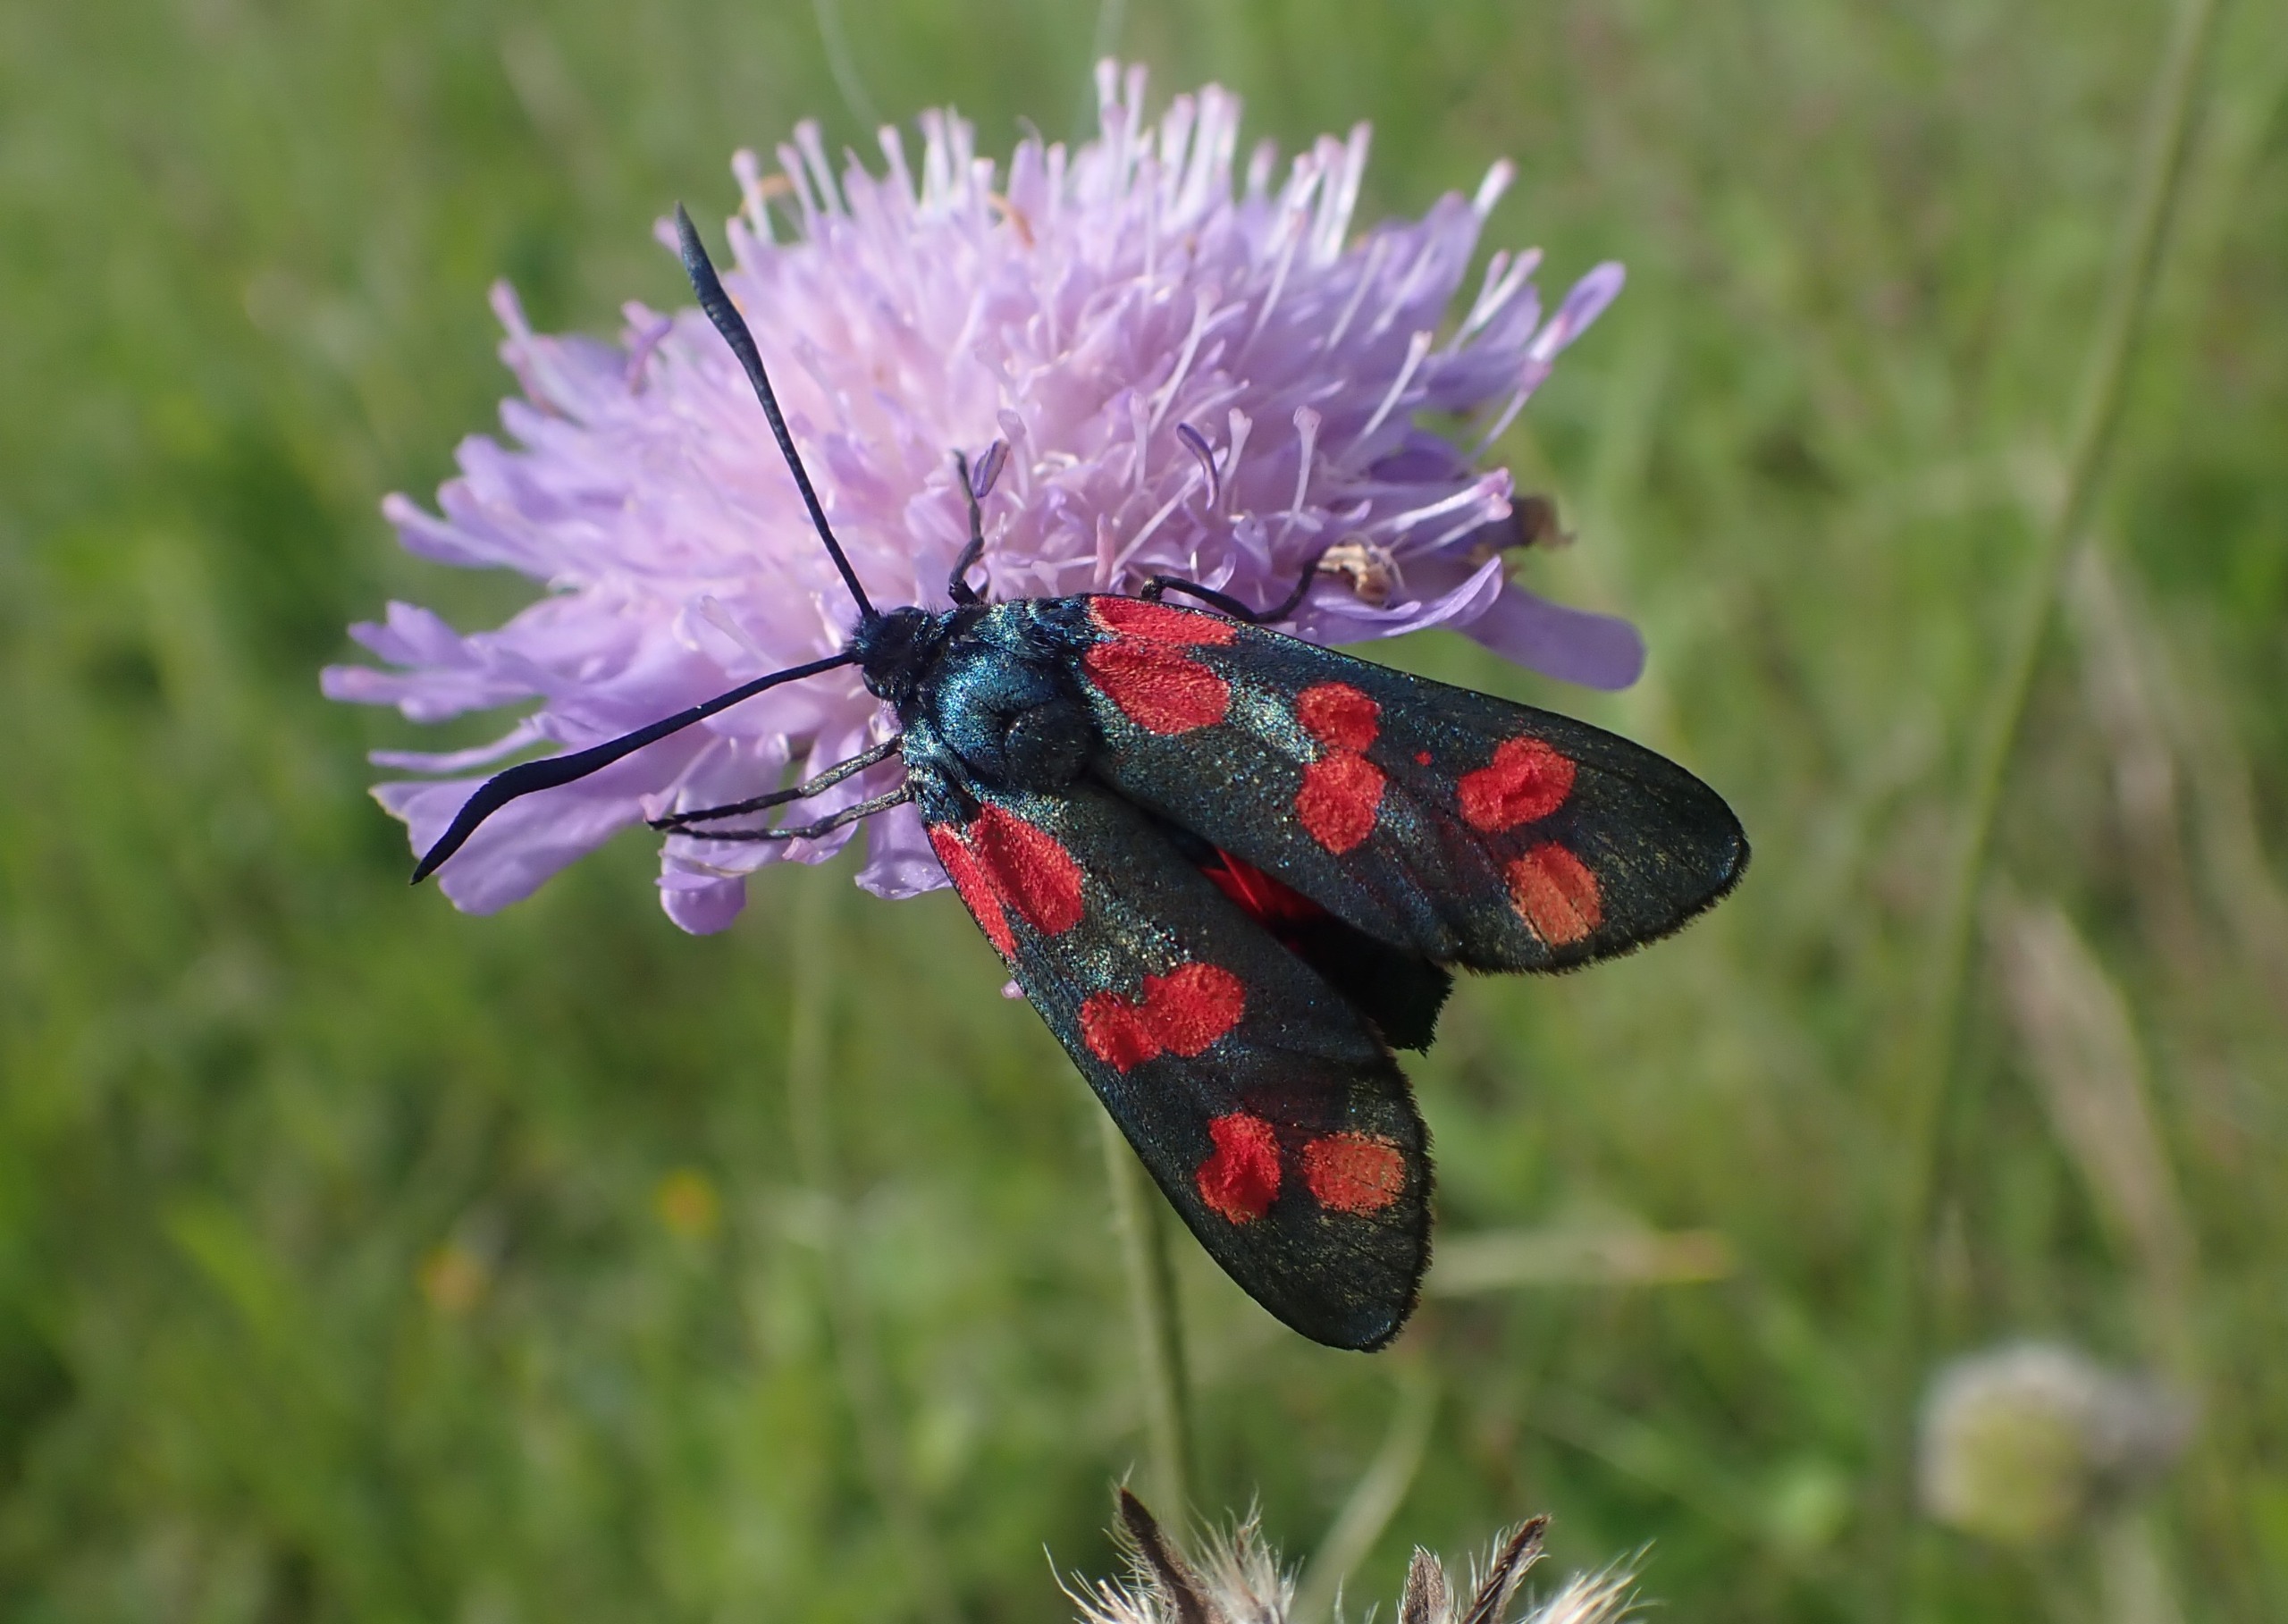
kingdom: Animalia
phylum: Arthropoda
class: Insecta
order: Lepidoptera
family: Zygaenidae
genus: Zygaena
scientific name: Zygaena filipendulae
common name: Seksplettet køllesværmer
